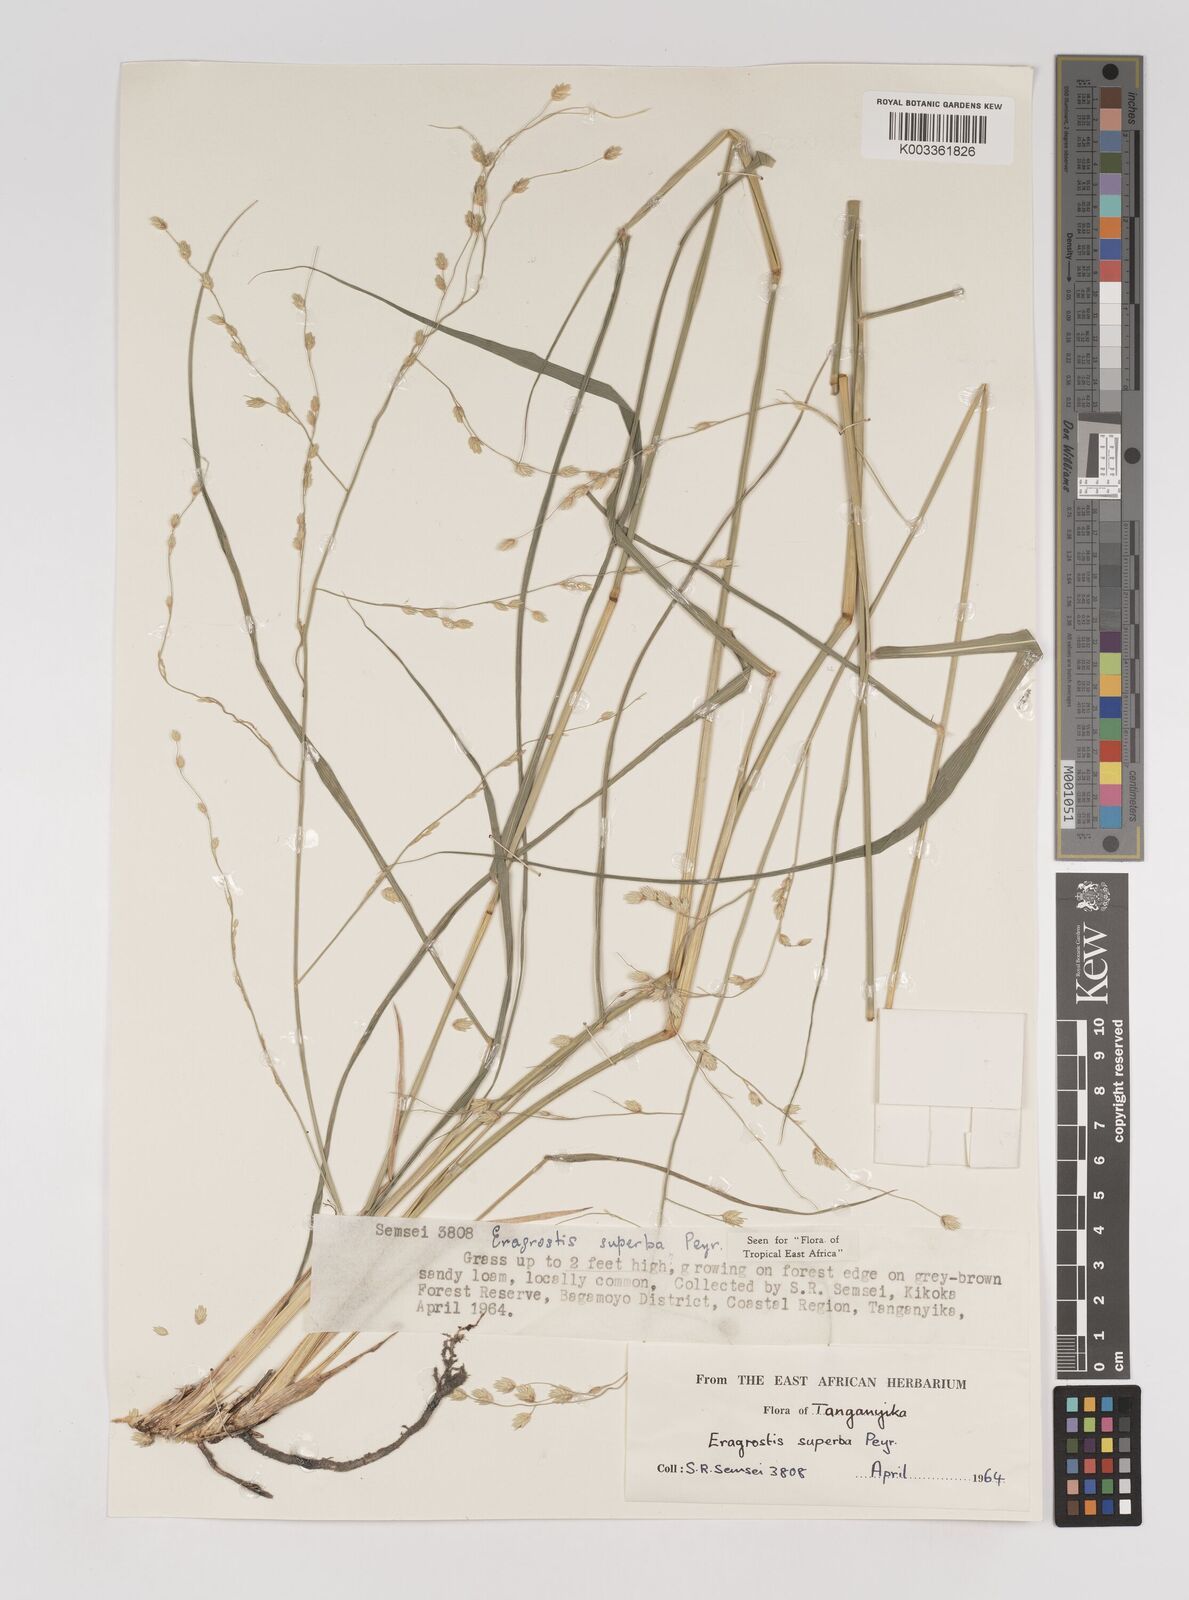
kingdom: Plantae
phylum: Tracheophyta
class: Liliopsida
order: Poales
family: Poaceae
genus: Eragrostis
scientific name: Eragrostis superba
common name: Wilman lovegrass
